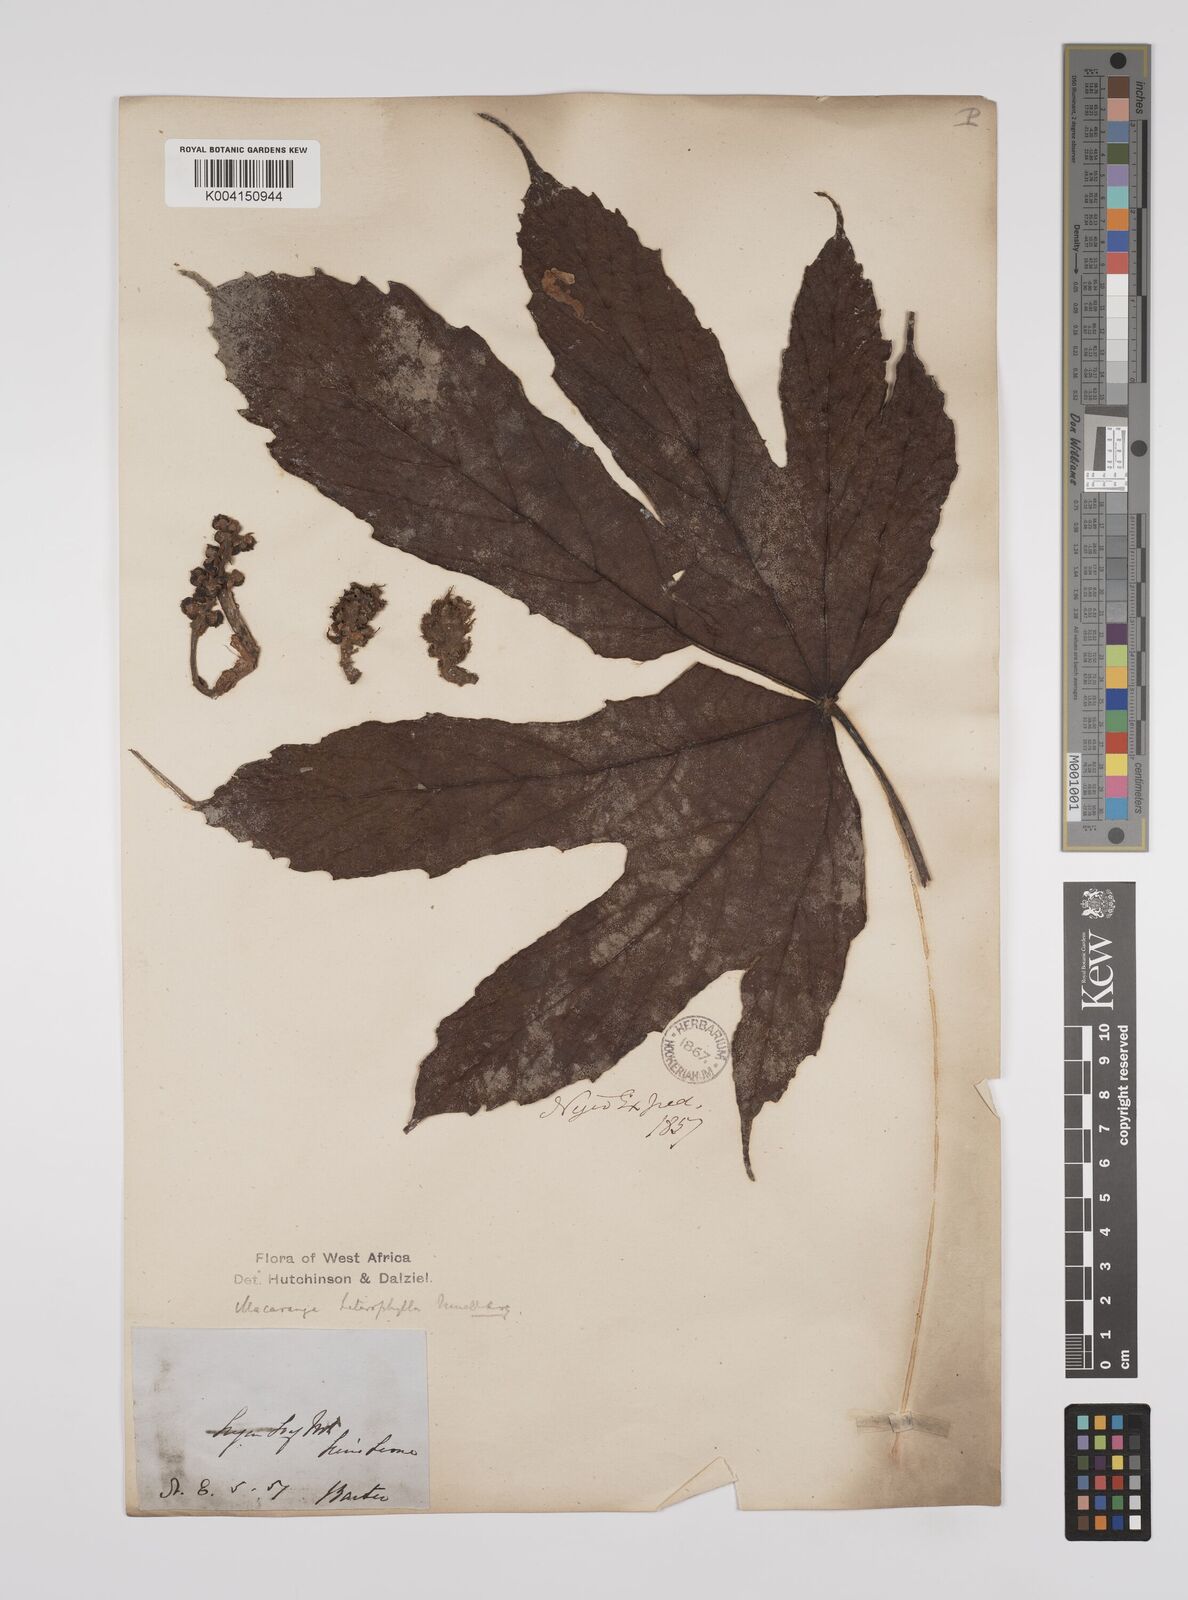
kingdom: Plantae
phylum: Tracheophyta
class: Magnoliopsida
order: Malpighiales
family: Euphorbiaceae
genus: Macaranga
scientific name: Macaranga heterophylla
